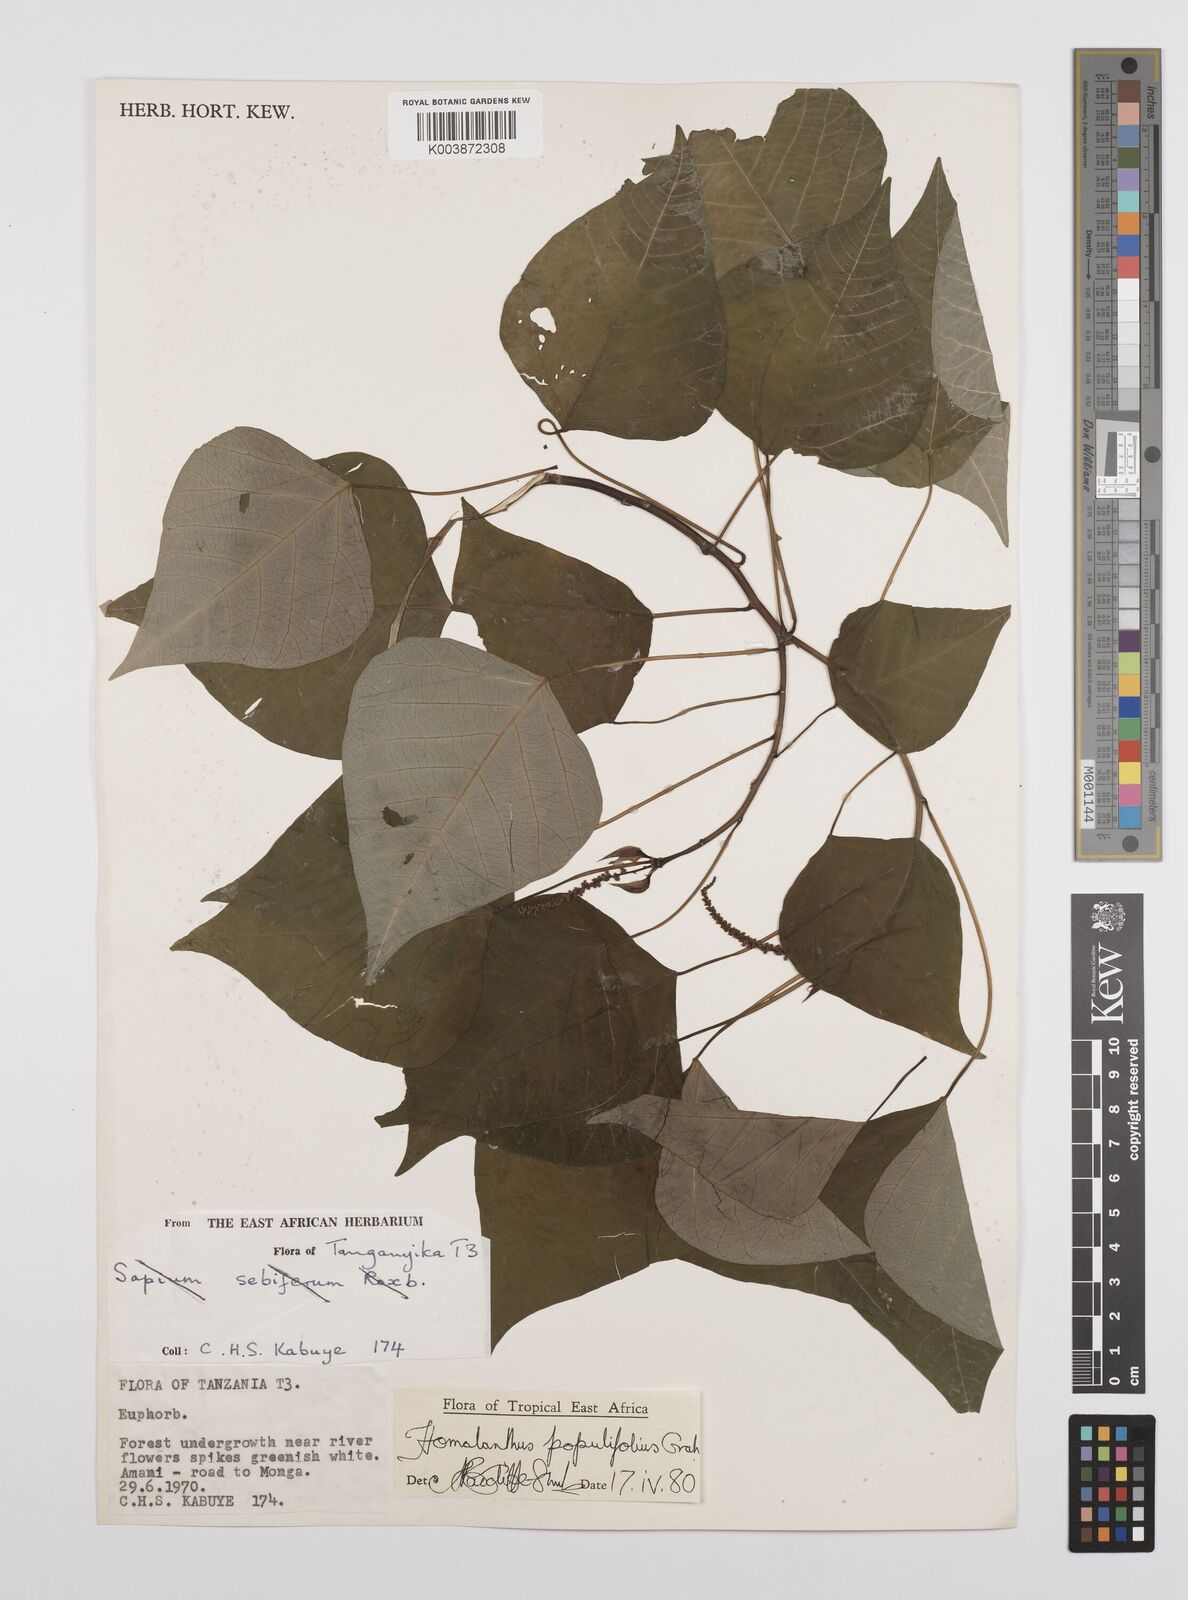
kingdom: Plantae
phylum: Tracheophyta
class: Magnoliopsida
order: Malpighiales
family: Euphorbiaceae
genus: Homalanthus
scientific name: Homalanthus populifolius
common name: Queensland poplar
